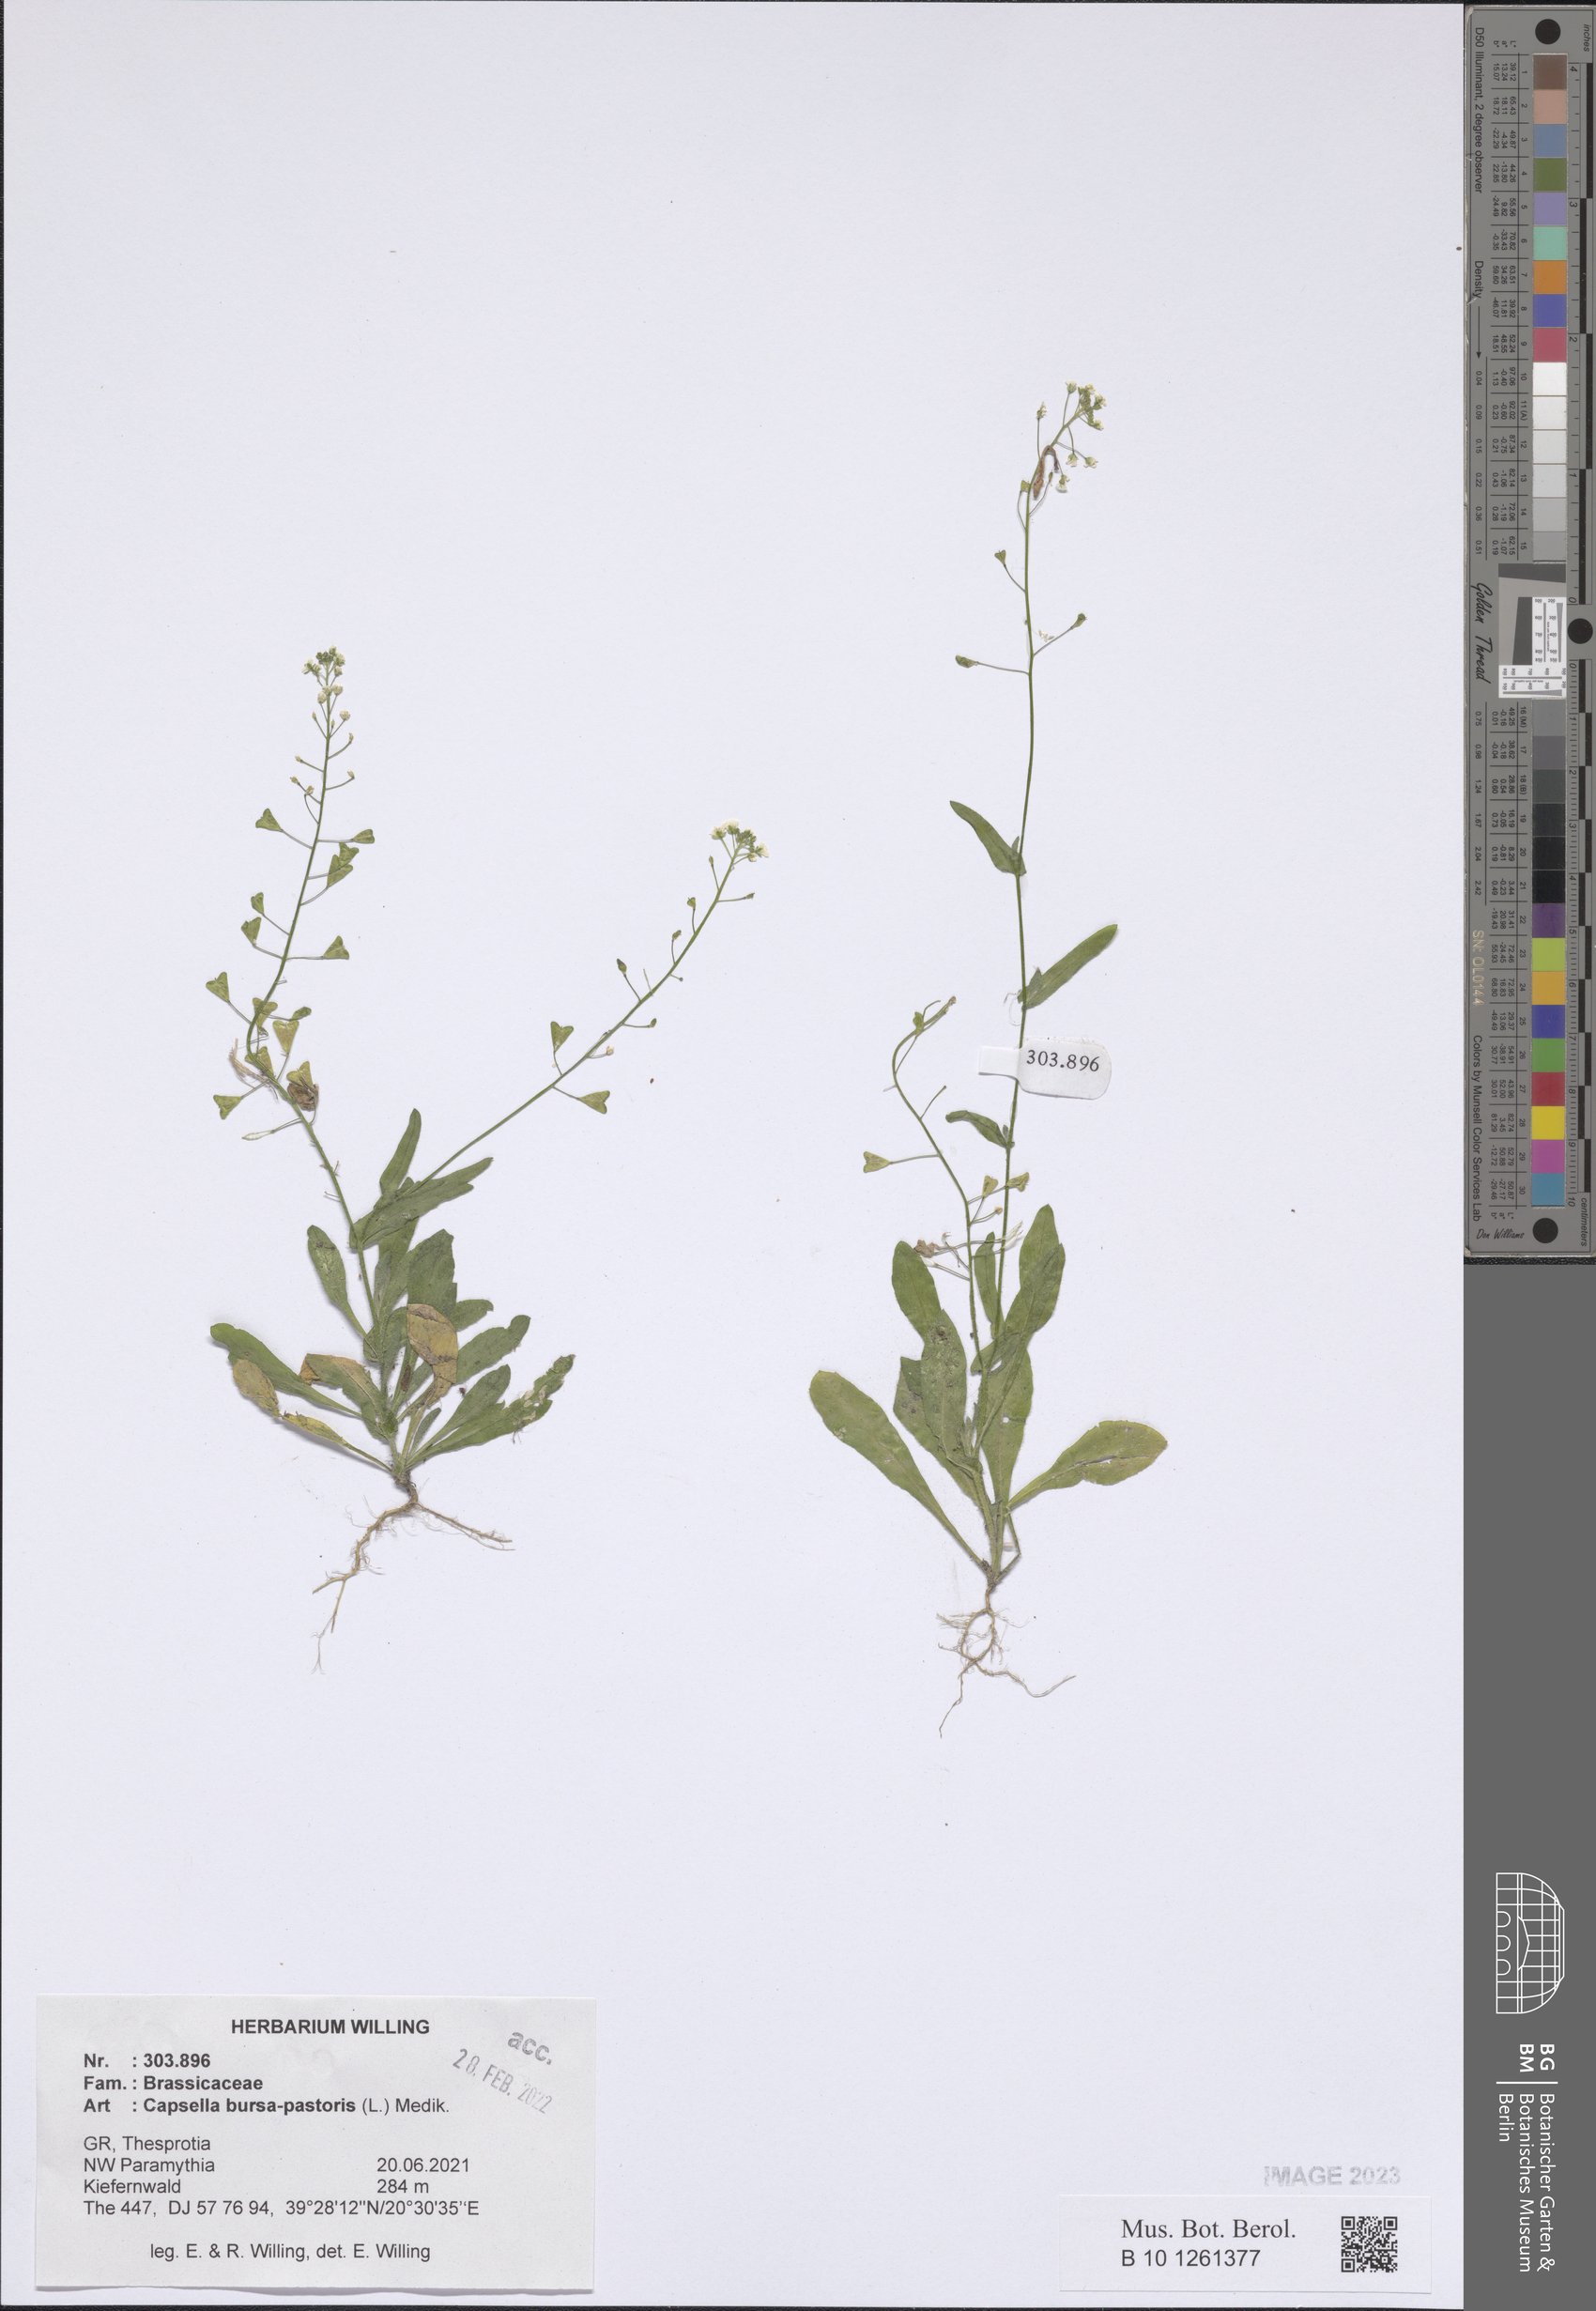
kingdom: Plantae
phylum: Tracheophyta
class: Magnoliopsida
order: Brassicales
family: Brassicaceae
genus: Capsella
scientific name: Capsella bursa-pastoris
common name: Shepherd's purse
